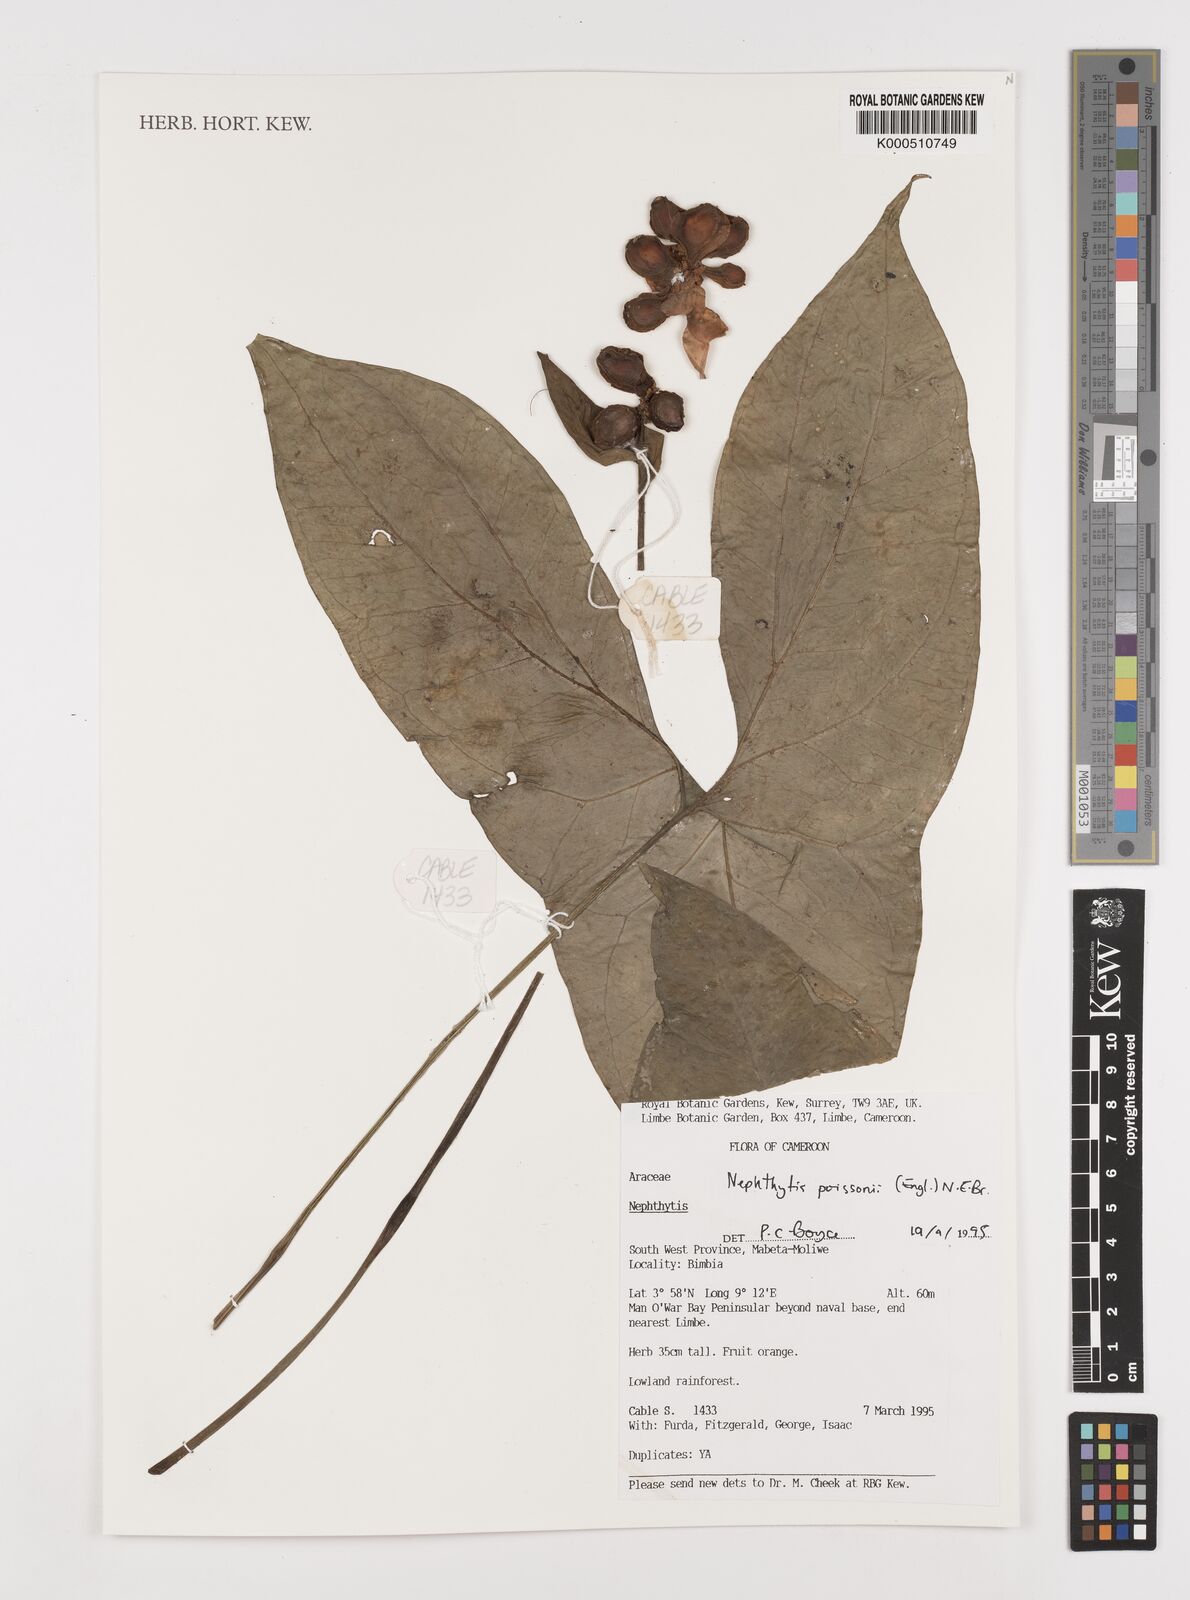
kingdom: Plantae
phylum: Tracheophyta
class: Liliopsida
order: Alismatales
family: Araceae
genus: Nephthytis
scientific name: Nephthytis poissonii
